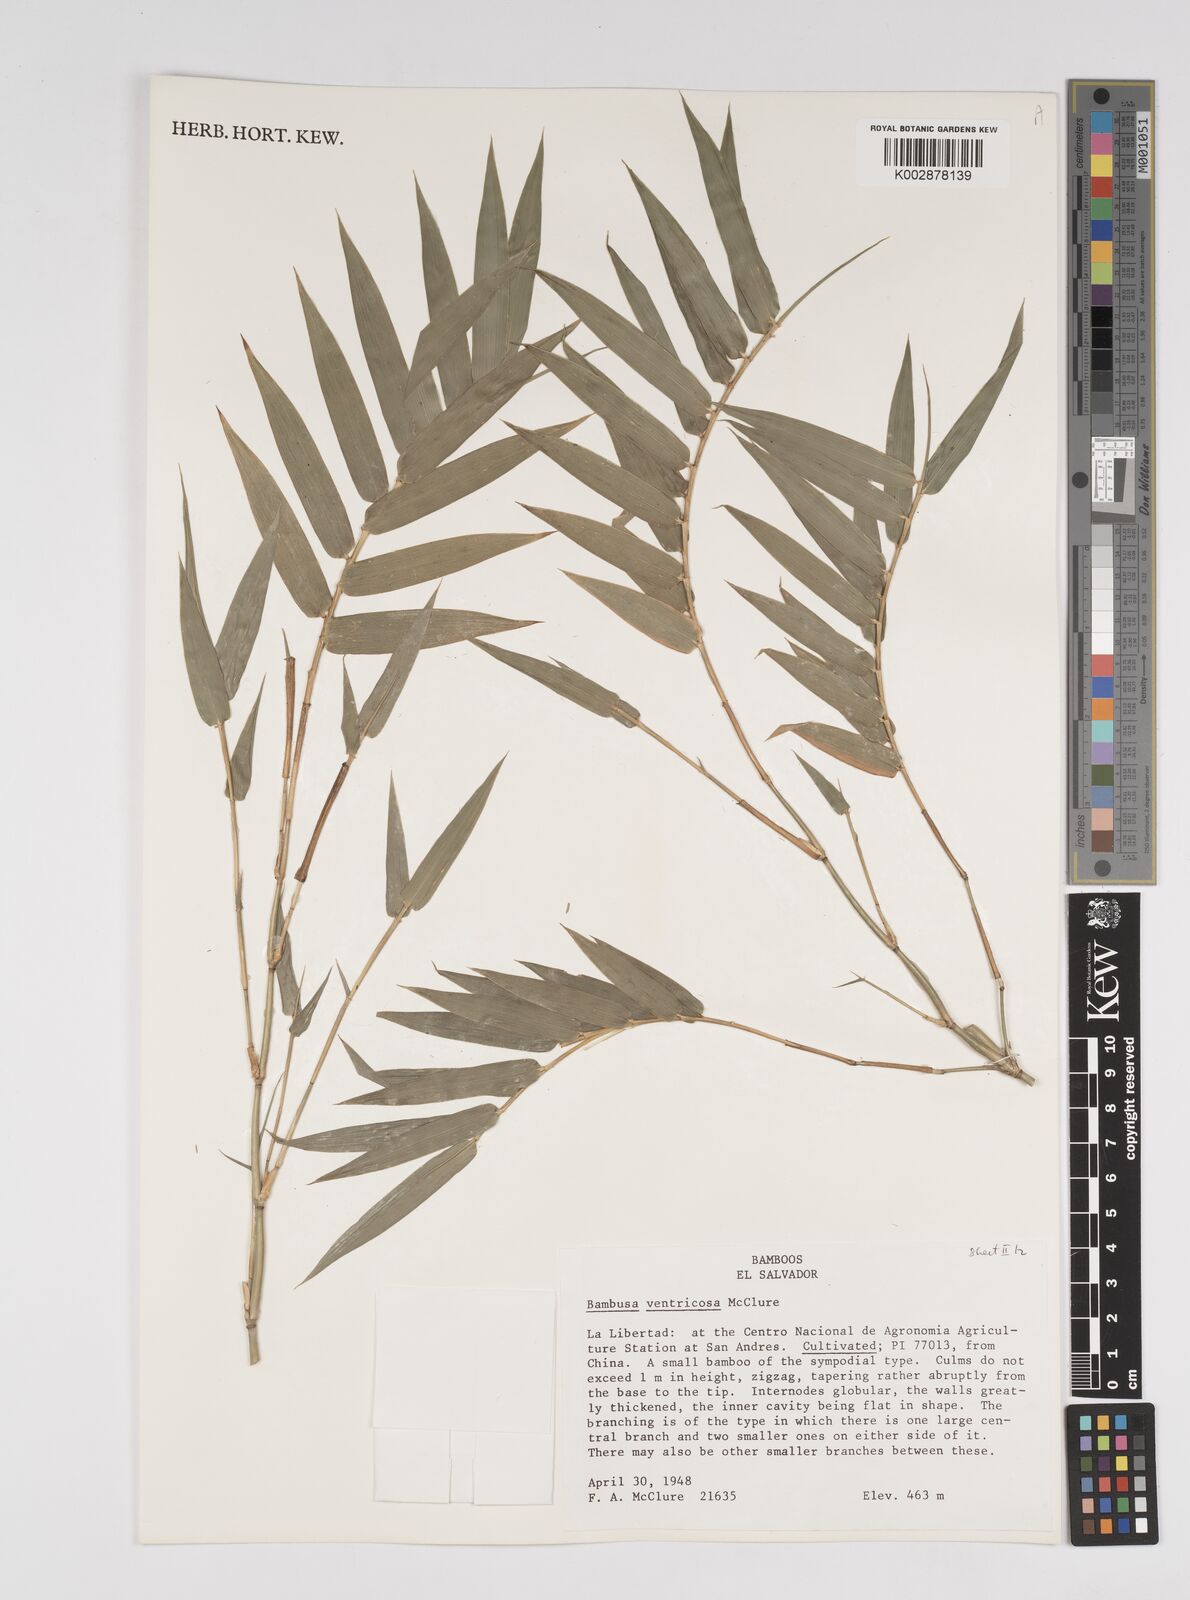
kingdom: Plantae
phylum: Tracheophyta
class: Liliopsida
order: Poales
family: Poaceae
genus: Bambusa
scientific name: Bambusa ventricosa
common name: Buddha bamboo
